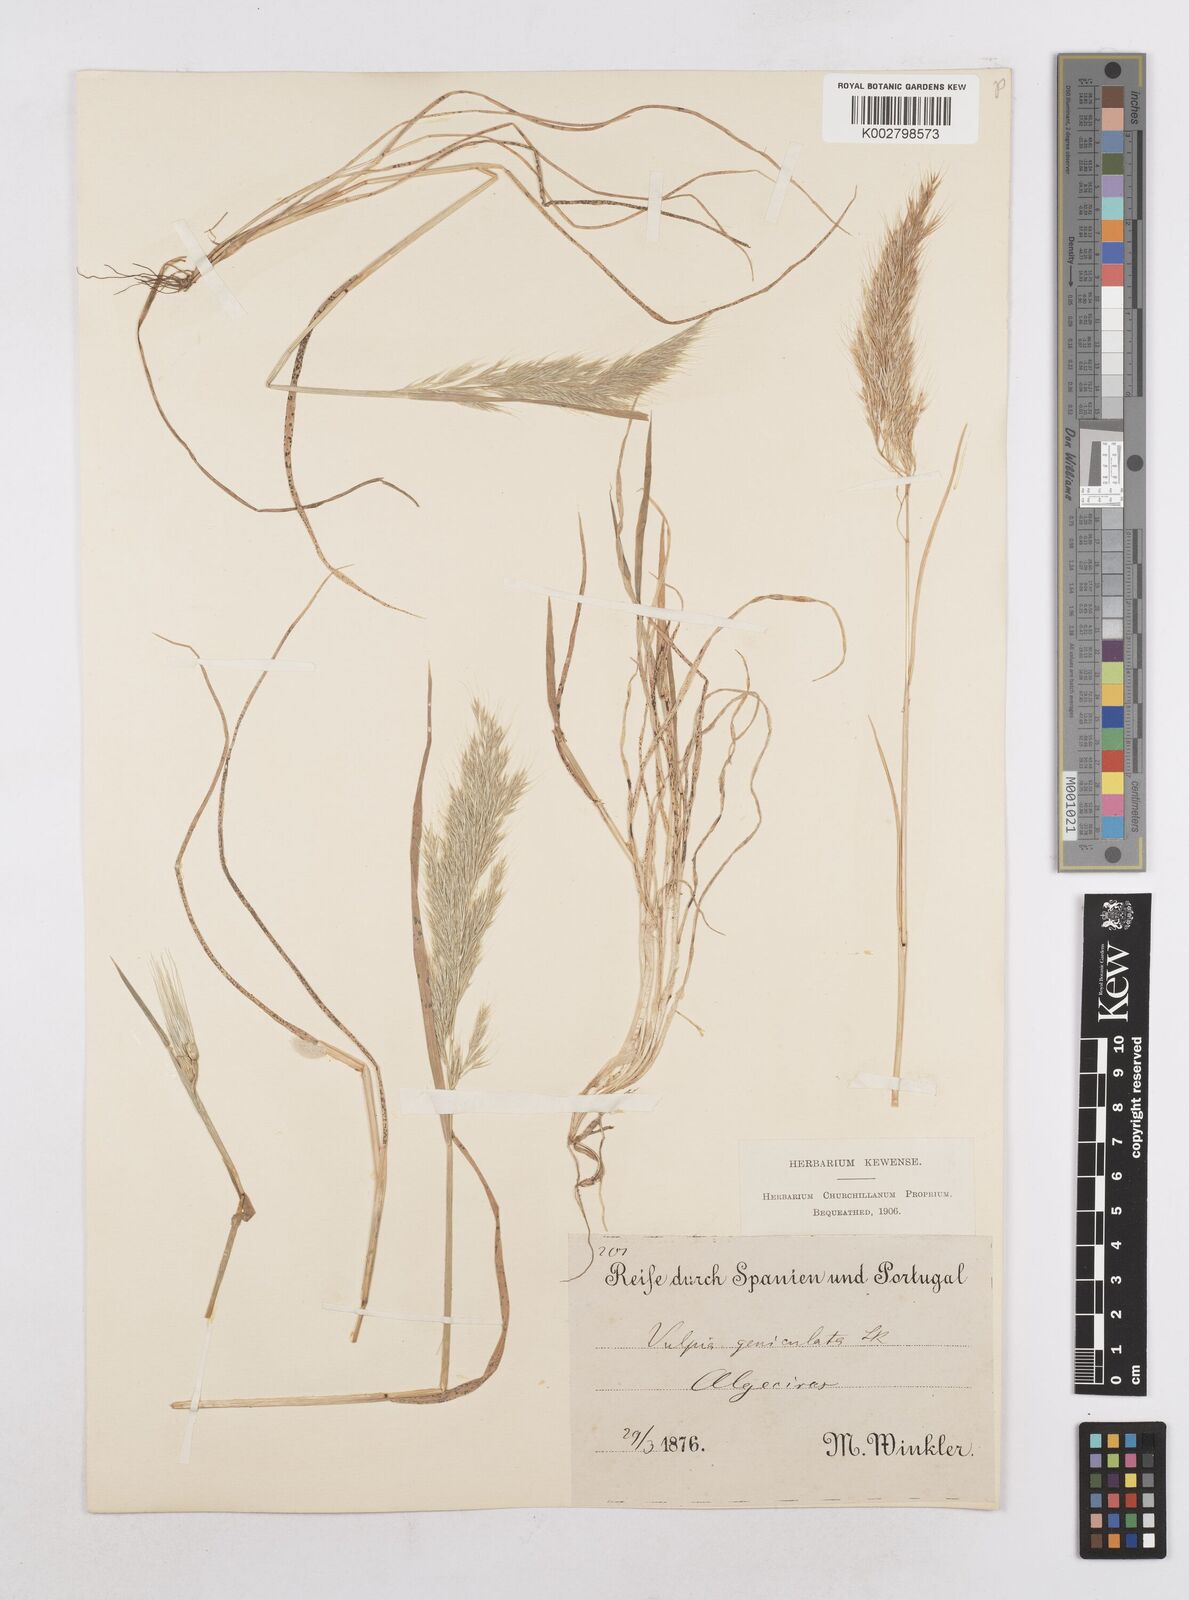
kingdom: Plantae
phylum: Tracheophyta
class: Liliopsida
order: Poales
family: Poaceae
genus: Festuca
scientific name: Festuca geniculata
